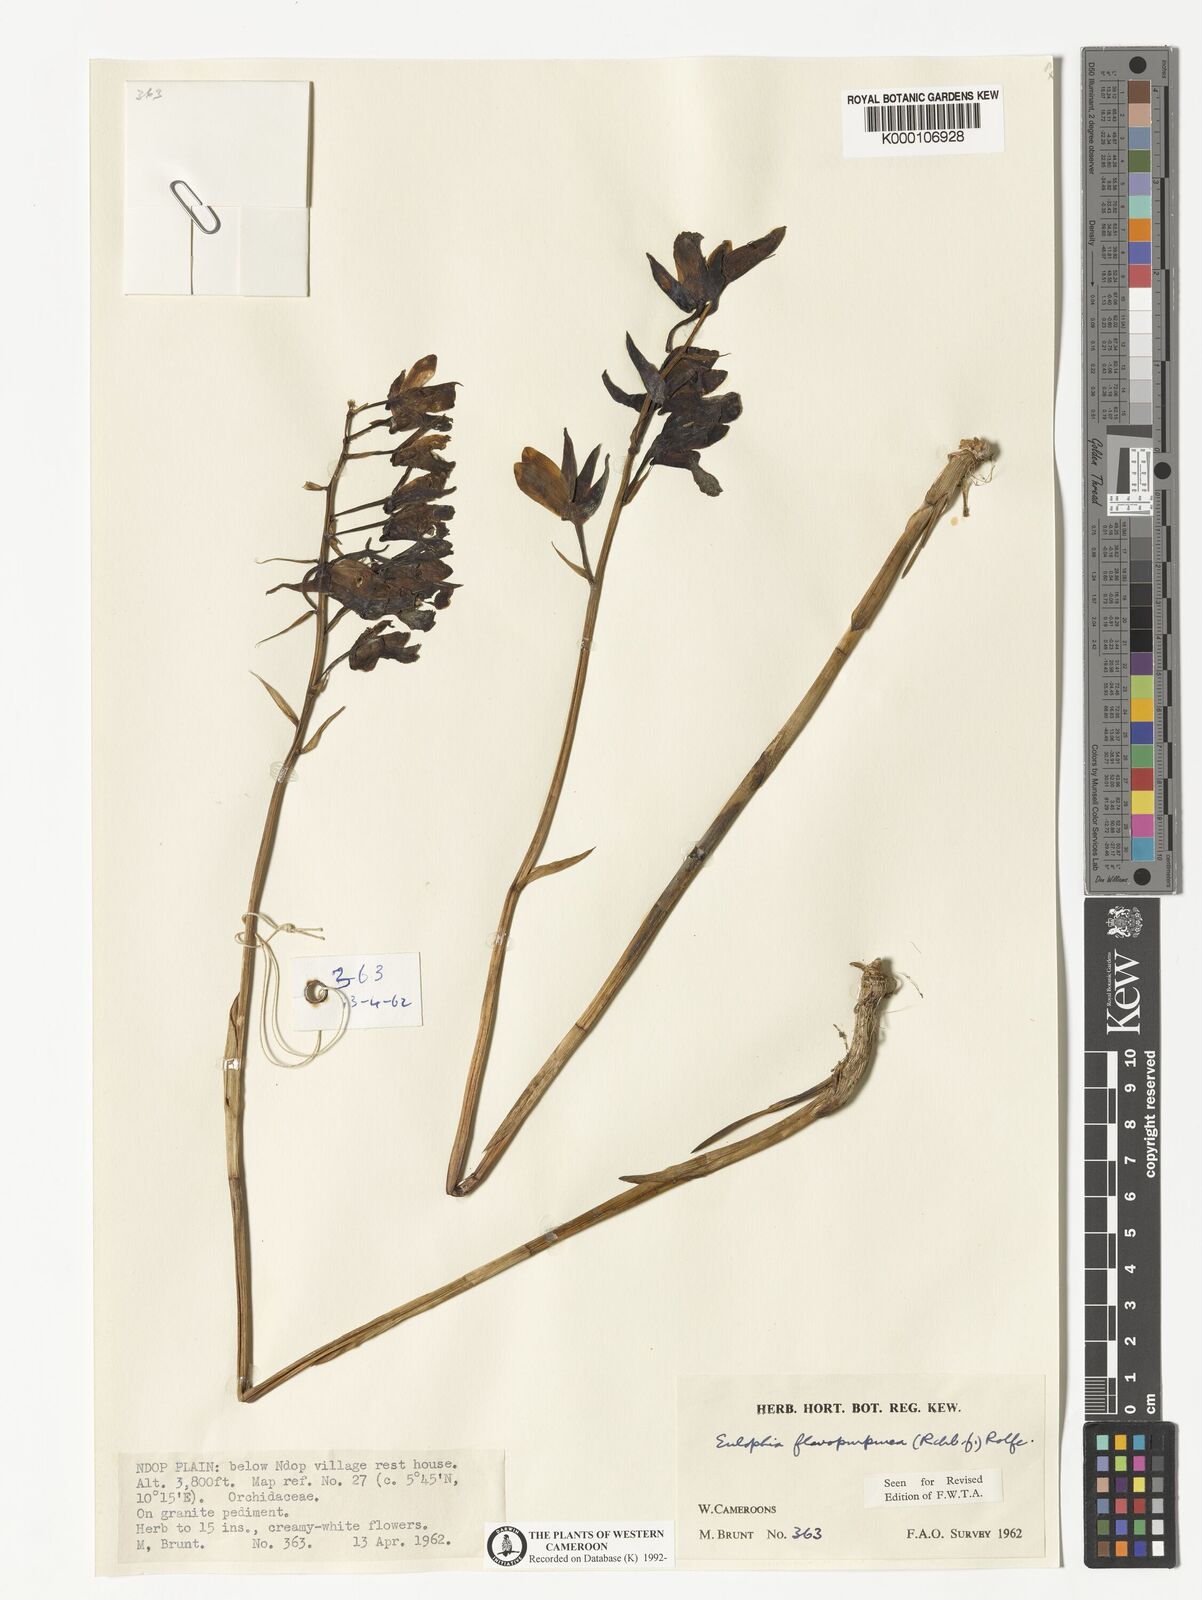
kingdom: Plantae
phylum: Tracheophyta
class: Liliopsida
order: Asparagales
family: Orchidaceae
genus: Eulophia
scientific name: Eulophia flavopurpurea
